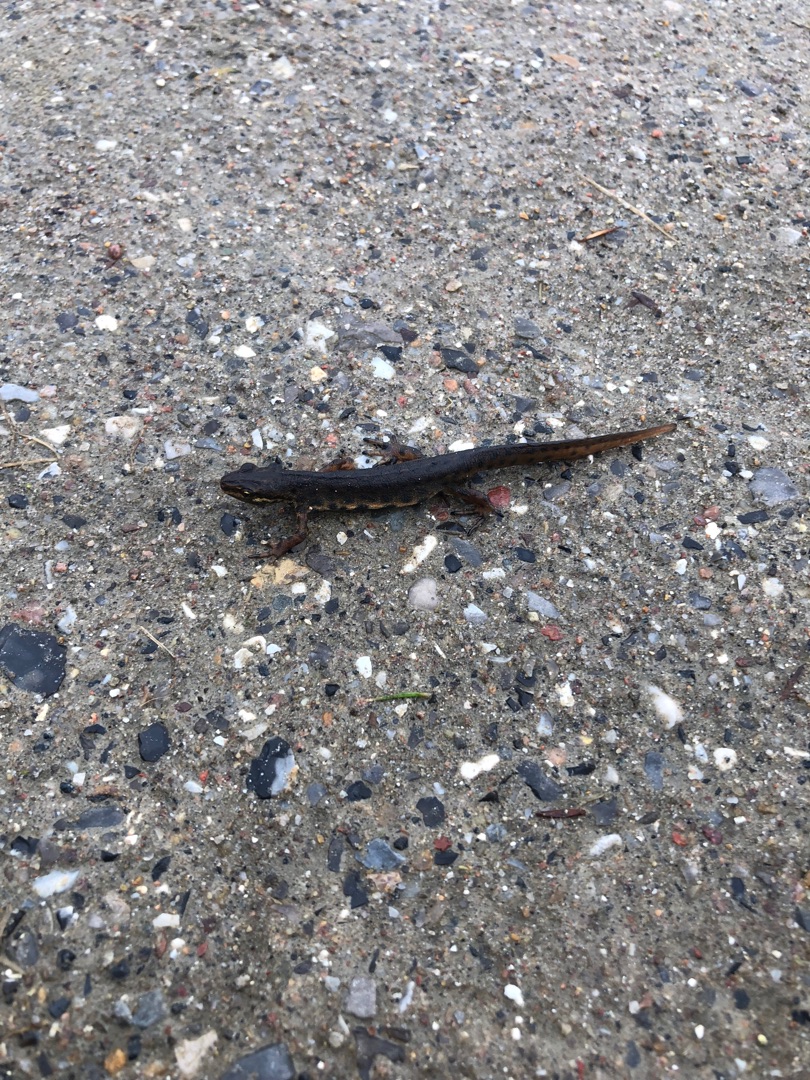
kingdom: Animalia
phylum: Chordata
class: Amphibia
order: Caudata
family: Salamandridae
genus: Lissotriton
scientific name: Lissotriton vulgaris
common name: Lille vandsalamander
